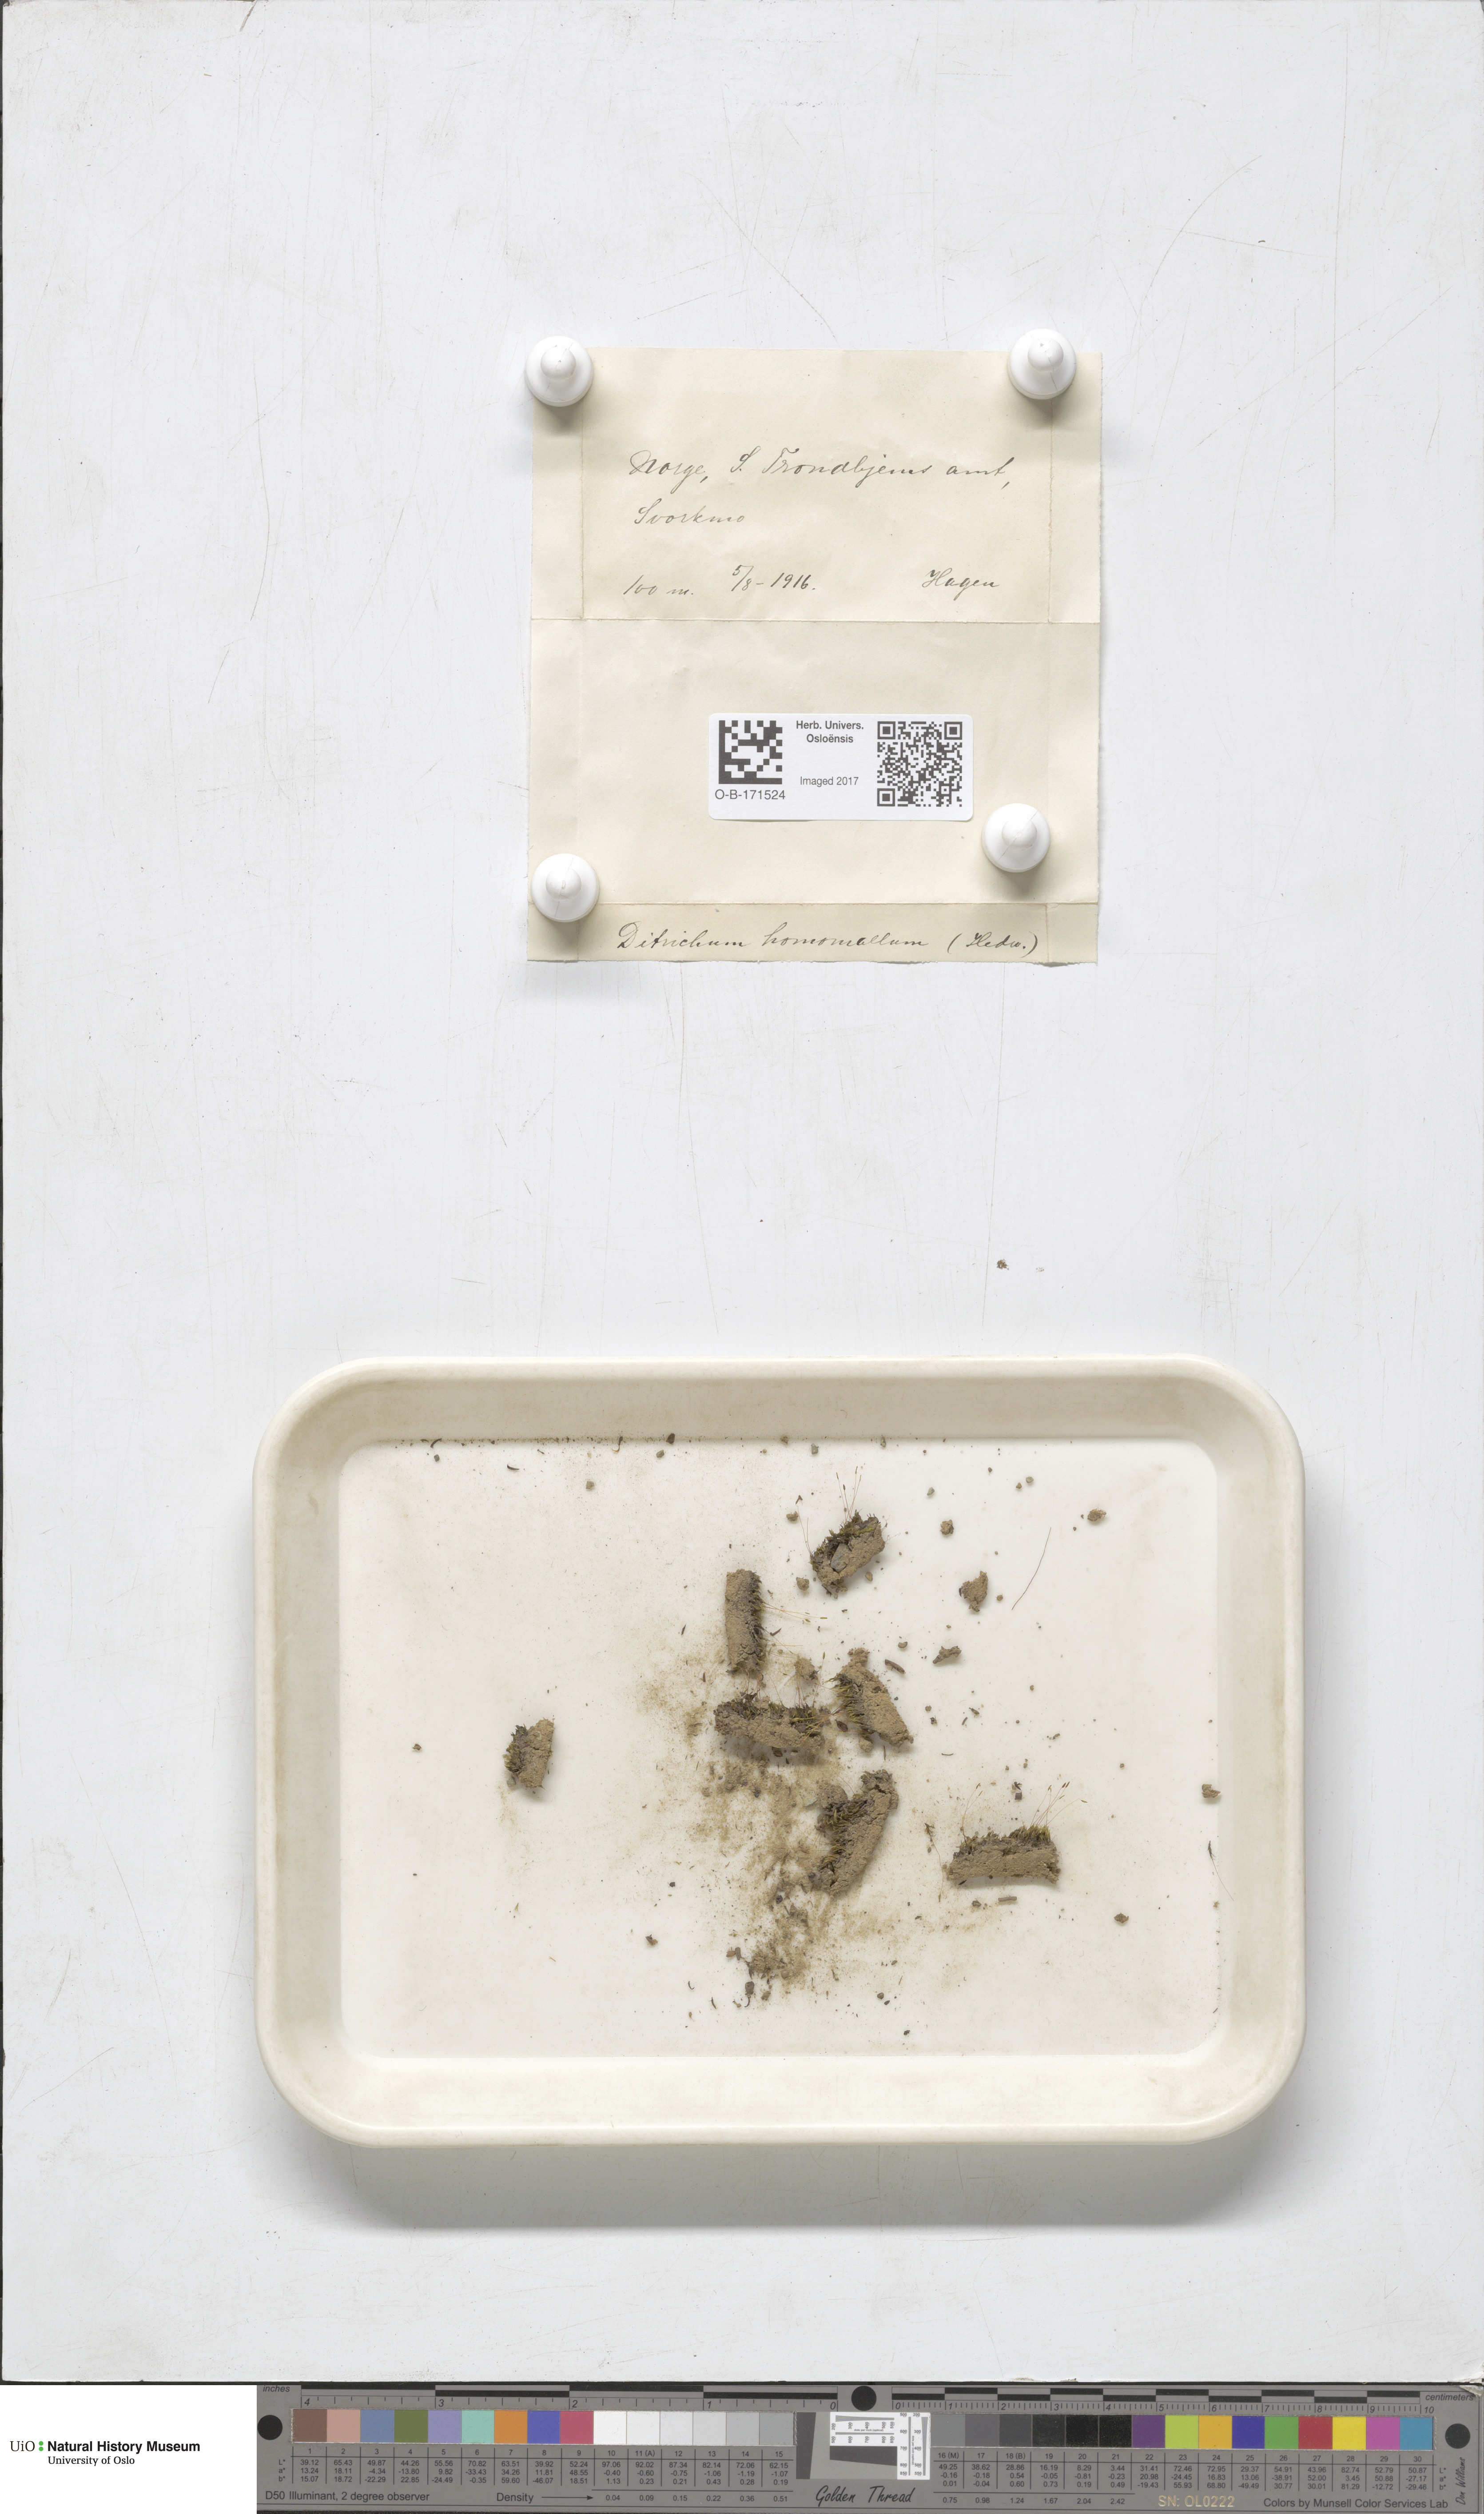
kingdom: Plantae
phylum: Bryophyta
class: Bryopsida
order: Dicranales
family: Ditrichaceae
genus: Ditrichum
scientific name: Ditrichum heteromallum
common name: Curve-leaved ditrichum
